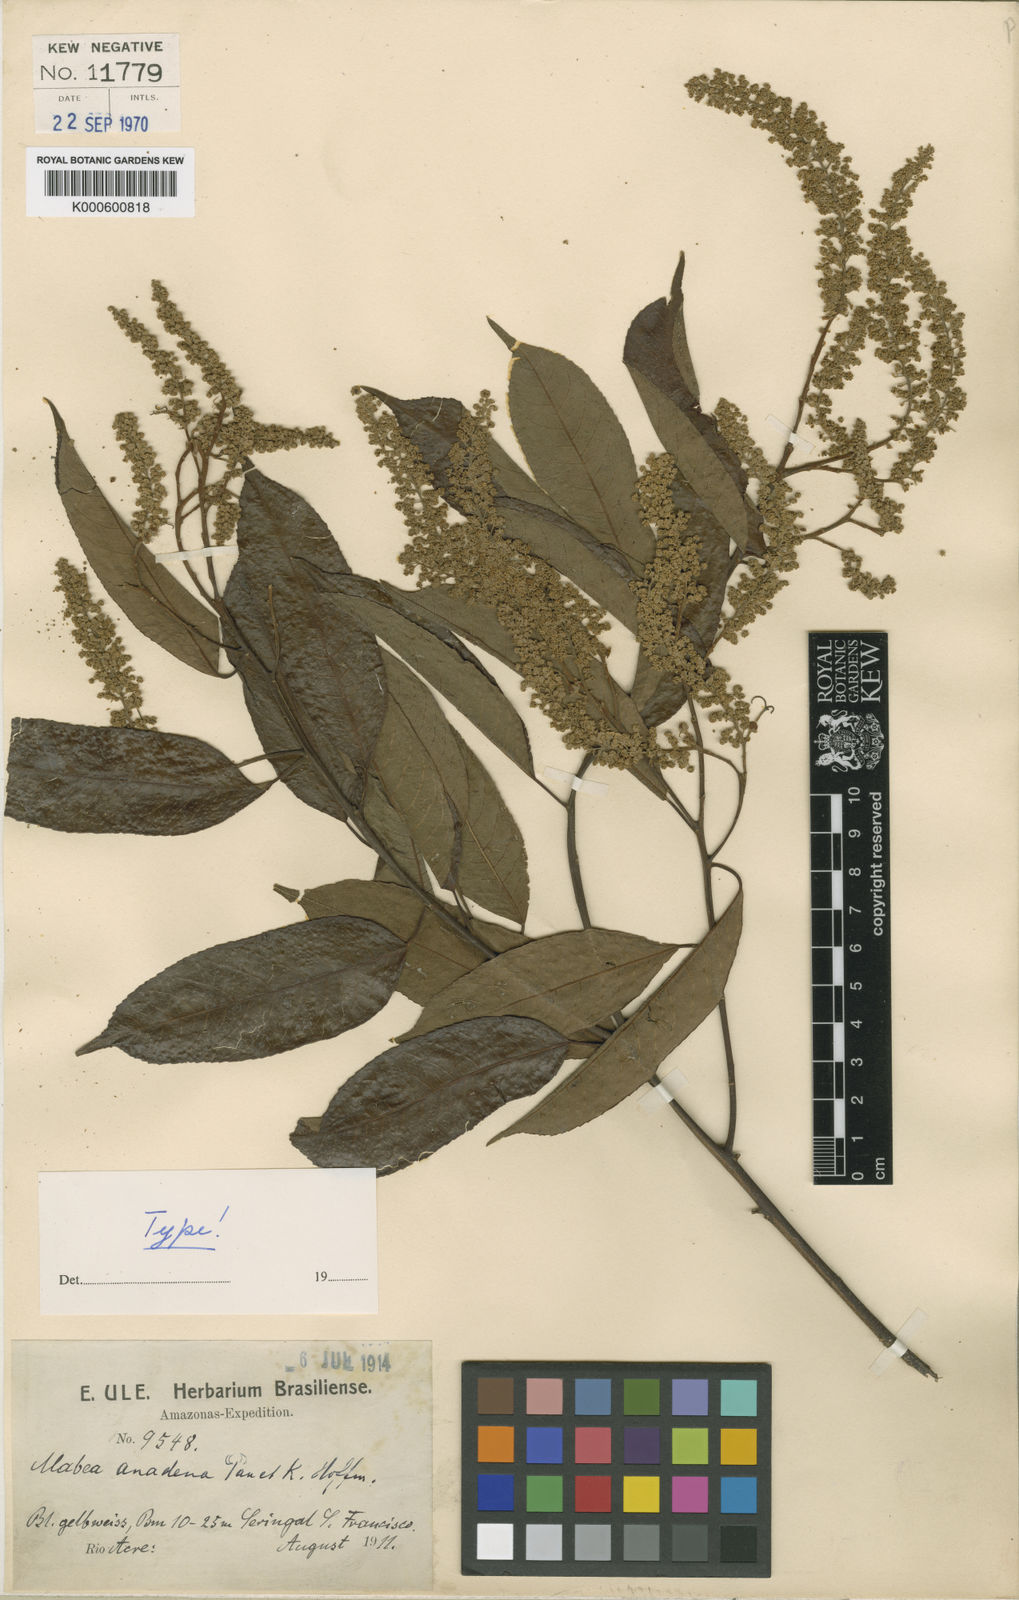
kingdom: Plantae
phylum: Tracheophyta
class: Magnoliopsida
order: Malpighiales
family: Euphorbiaceae
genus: Mabea
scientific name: Mabea anadena
